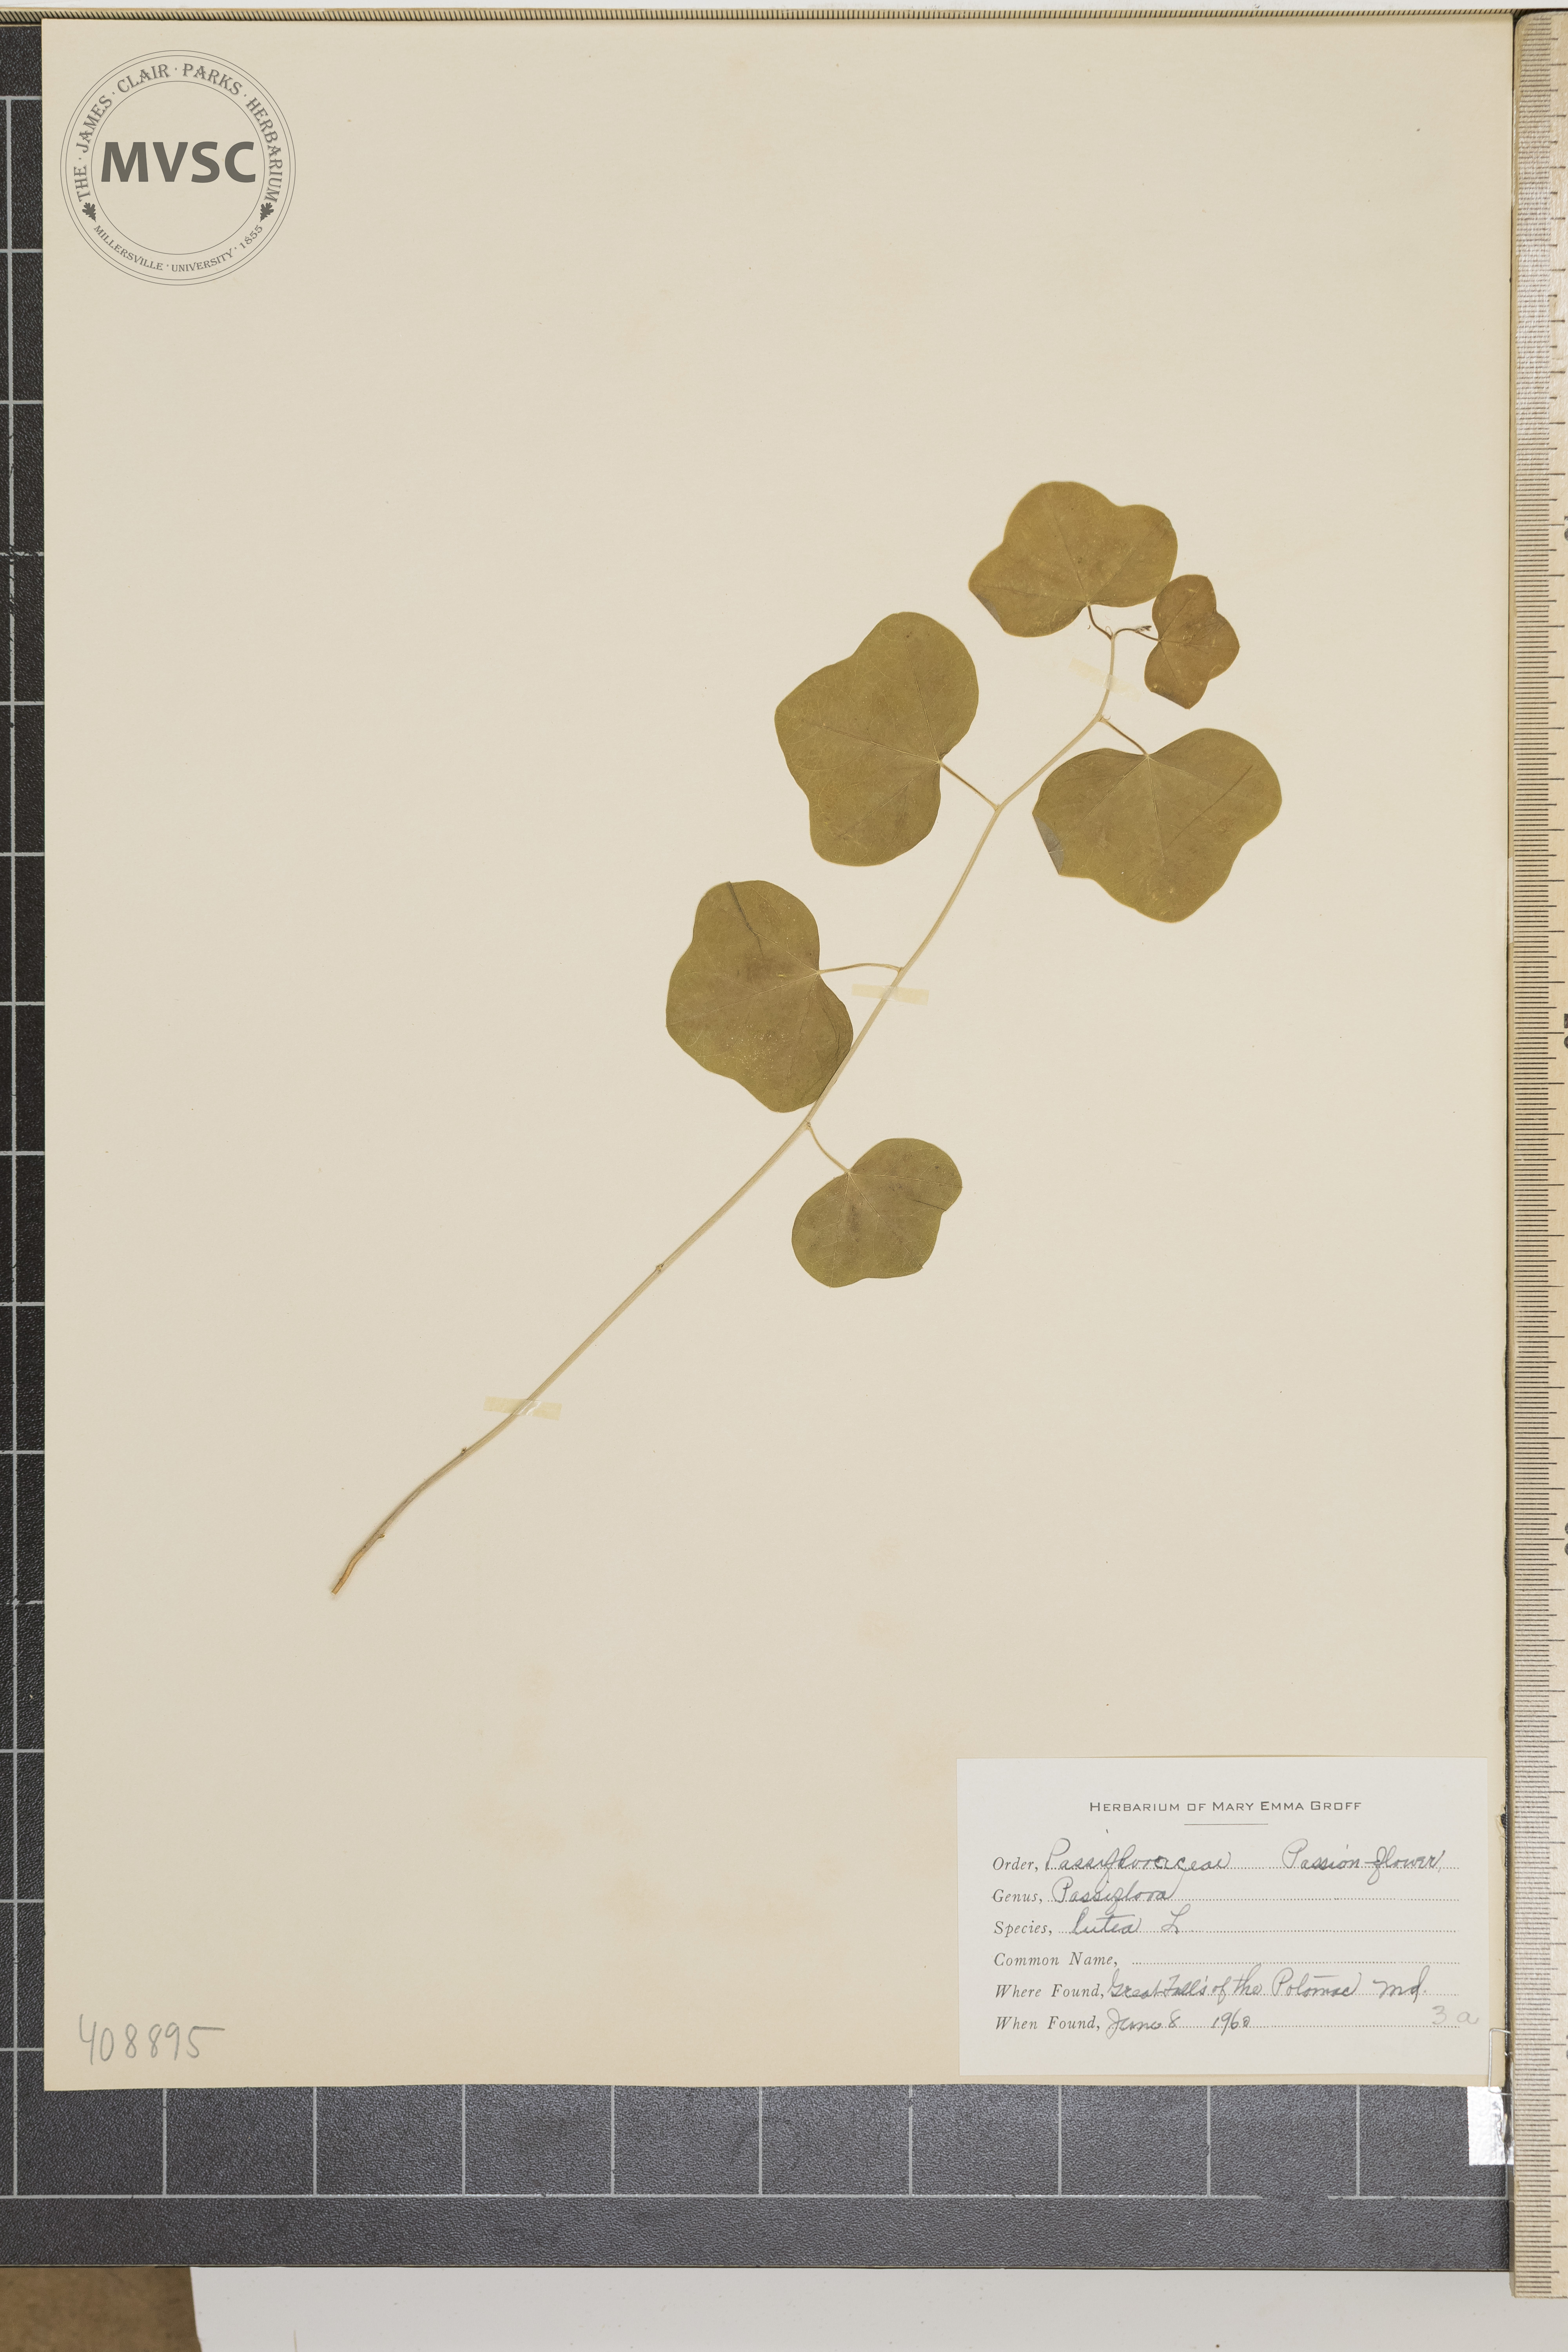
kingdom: Plantae
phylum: Tracheophyta
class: Magnoliopsida
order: Malpighiales
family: Passifloraceae
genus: Passiflora
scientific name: Passiflora lutea
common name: Yellow passionflower
